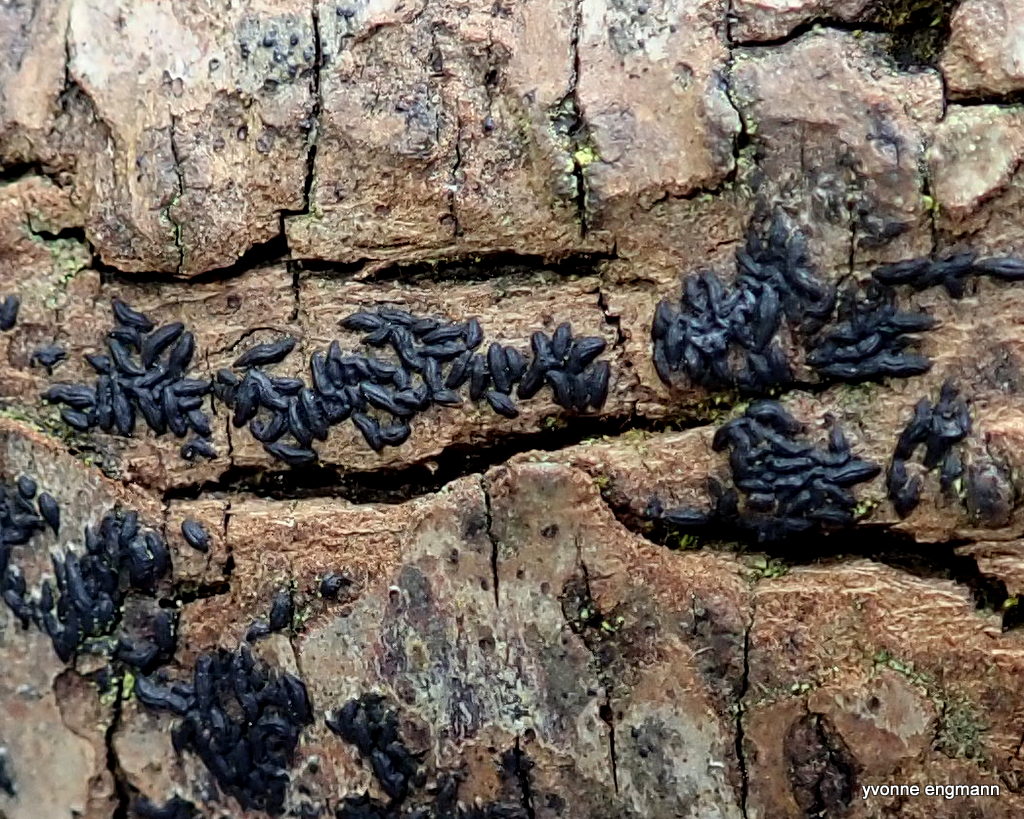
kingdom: Fungi
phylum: Ascomycota
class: Dothideomycetes
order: Hysteriales
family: Hysteriaceae
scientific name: Hysteriaceae
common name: kulmundfamilien
